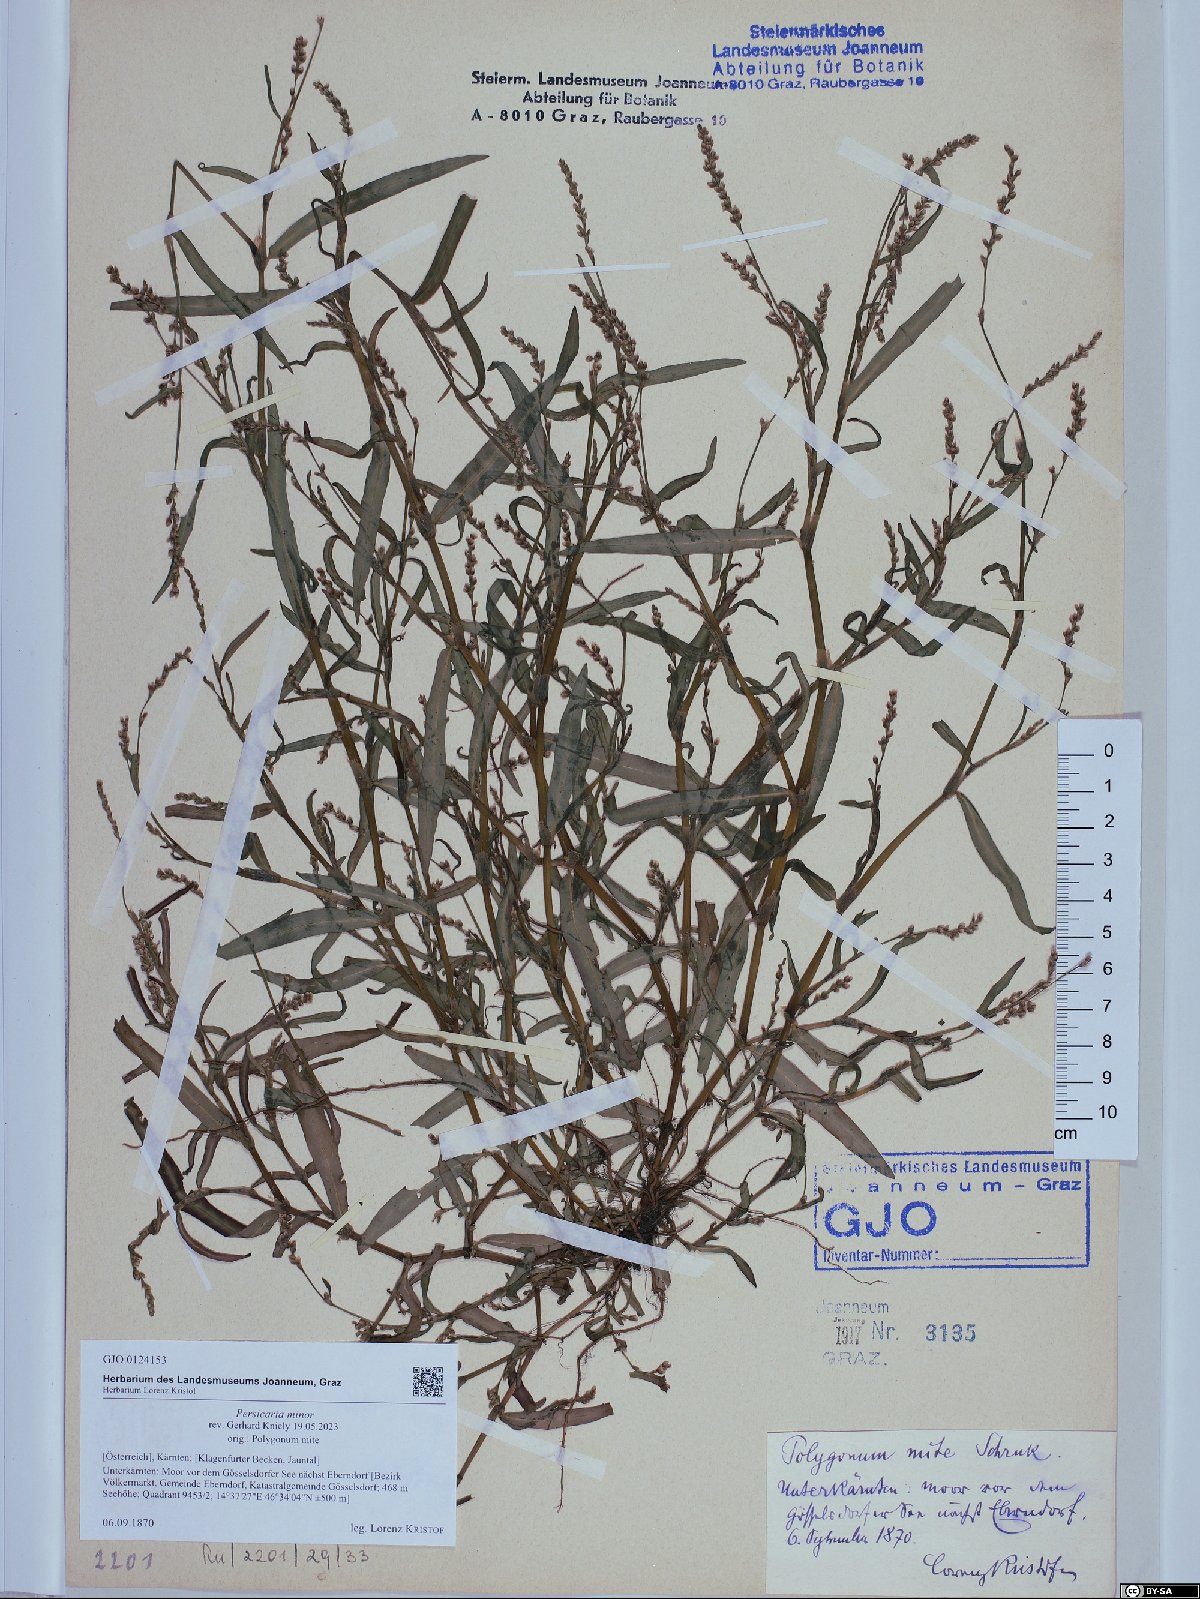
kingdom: Plantae
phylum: Tracheophyta
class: Magnoliopsida
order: Caryophyllales
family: Polygonaceae
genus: Persicaria
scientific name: Persicaria minor
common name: Small water-pepper
